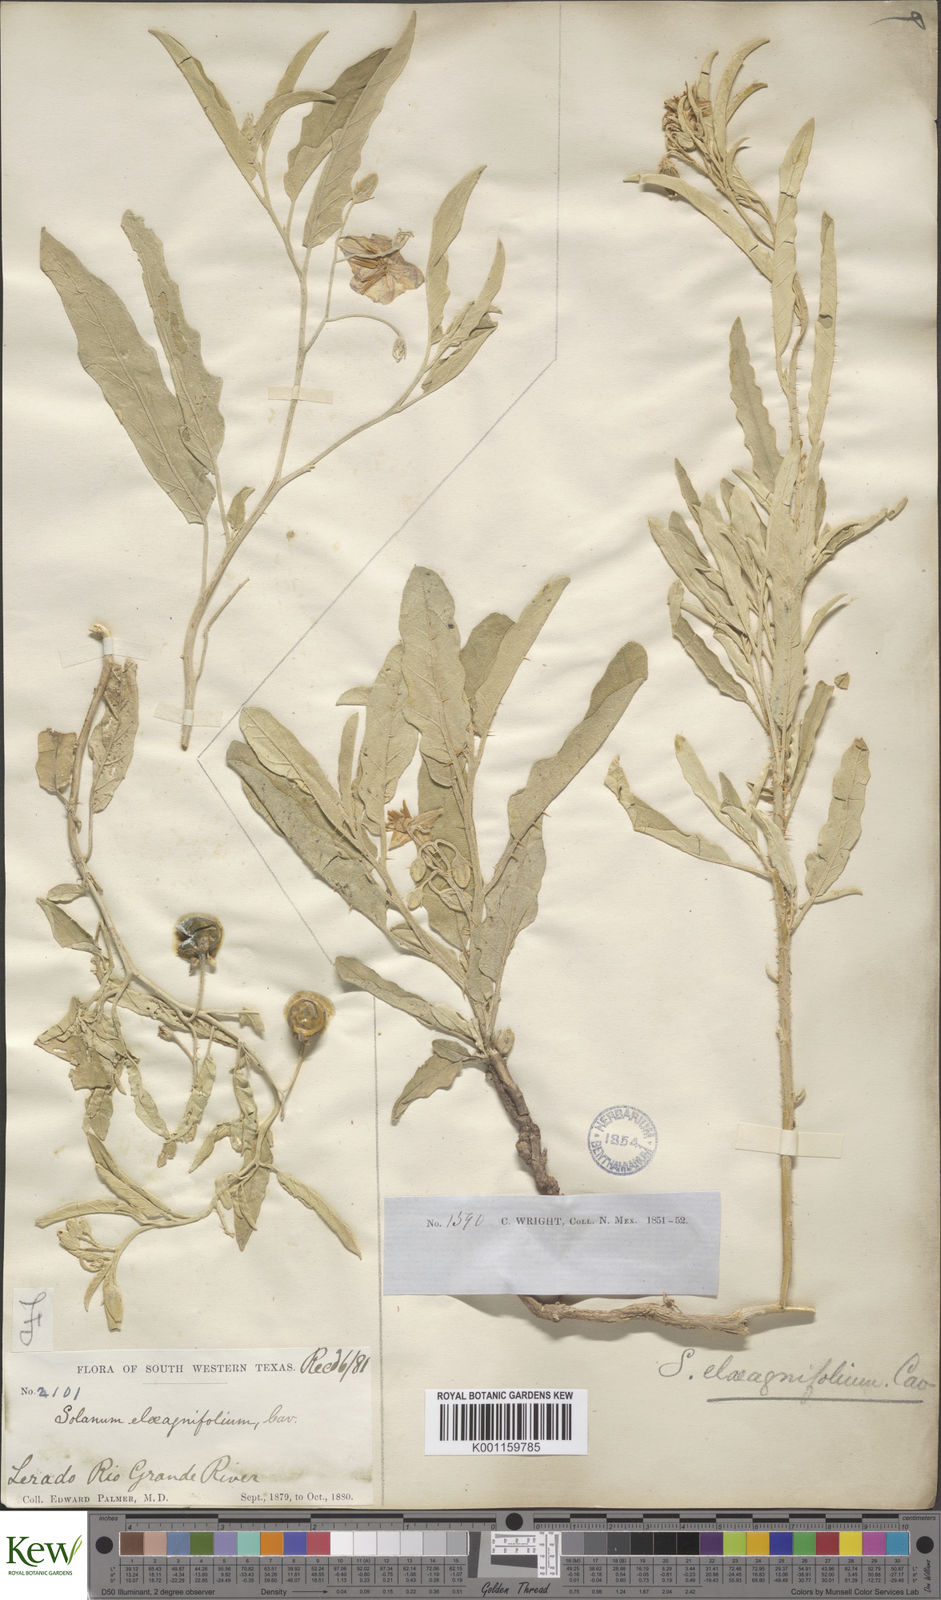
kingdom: Plantae
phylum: Tracheophyta
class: Magnoliopsida
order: Solanales
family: Solanaceae
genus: Solanum
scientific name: Solanum
